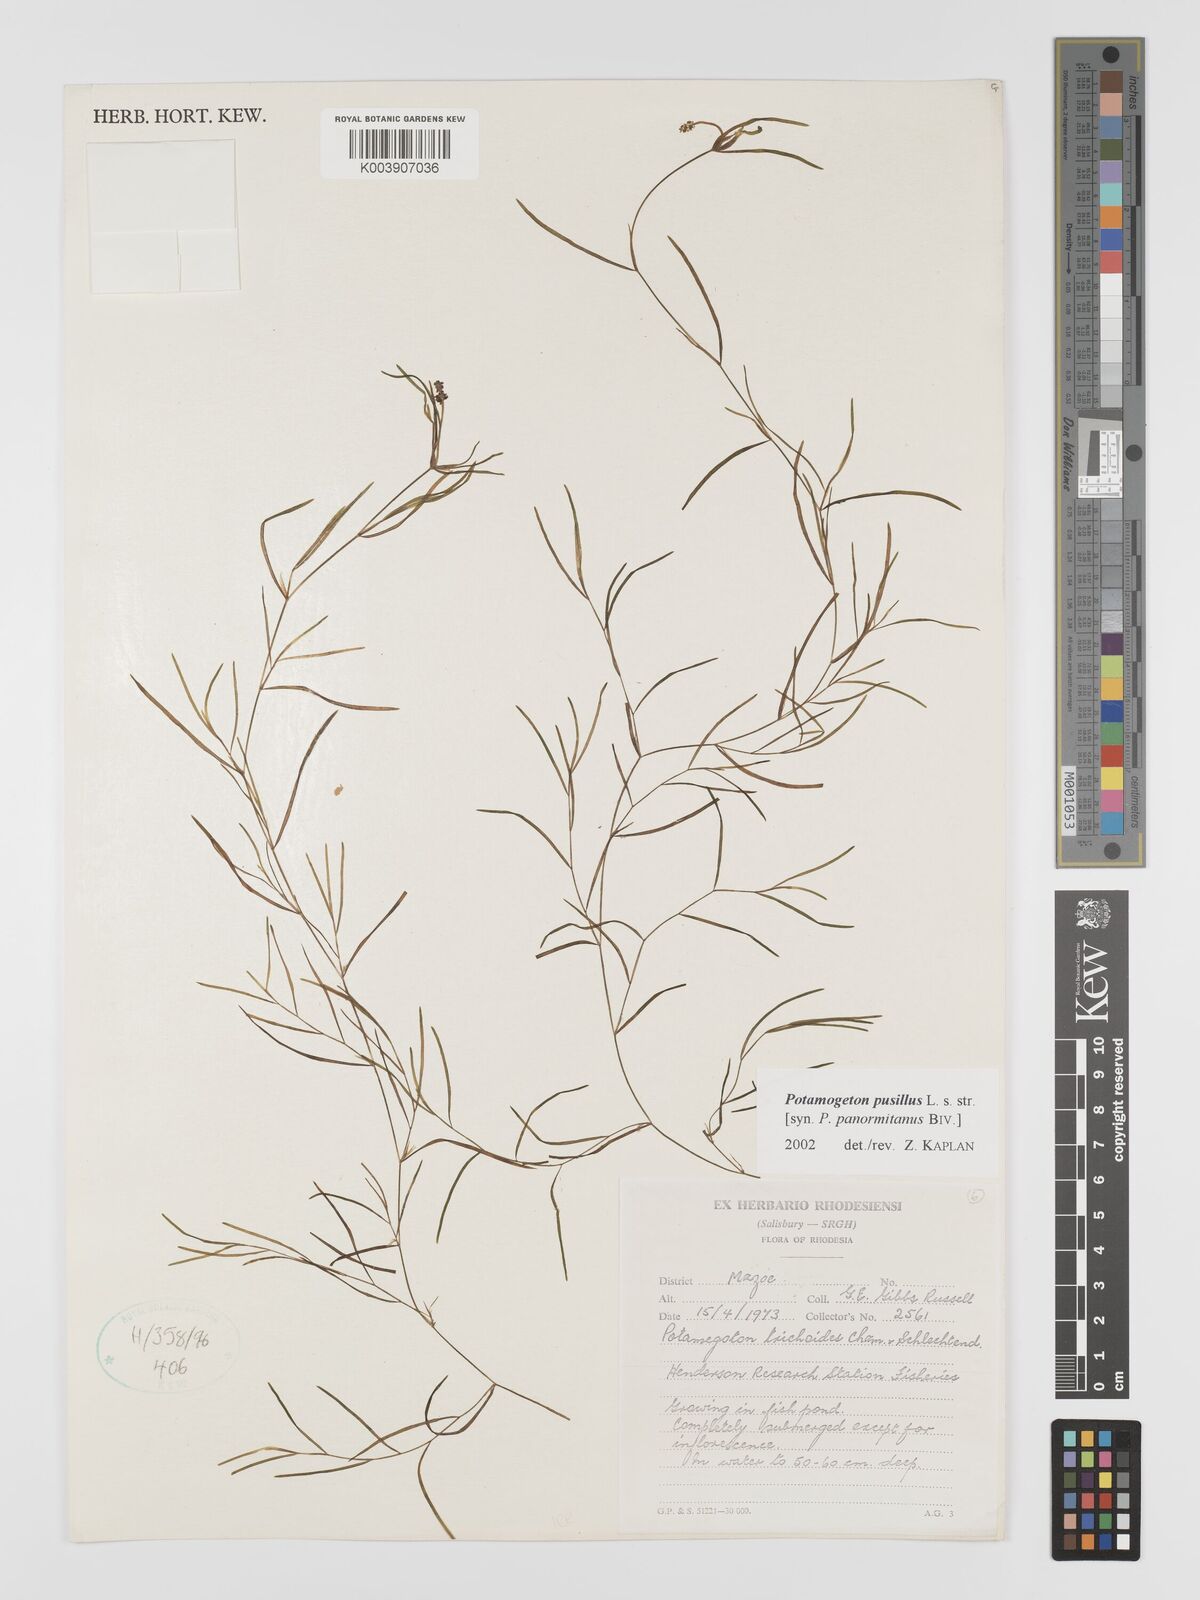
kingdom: Plantae
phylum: Tracheophyta
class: Liliopsida
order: Alismatales
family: Potamogetonaceae
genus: Potamogeton
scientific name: Potamogeton pusillus
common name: Lesser pondweed
